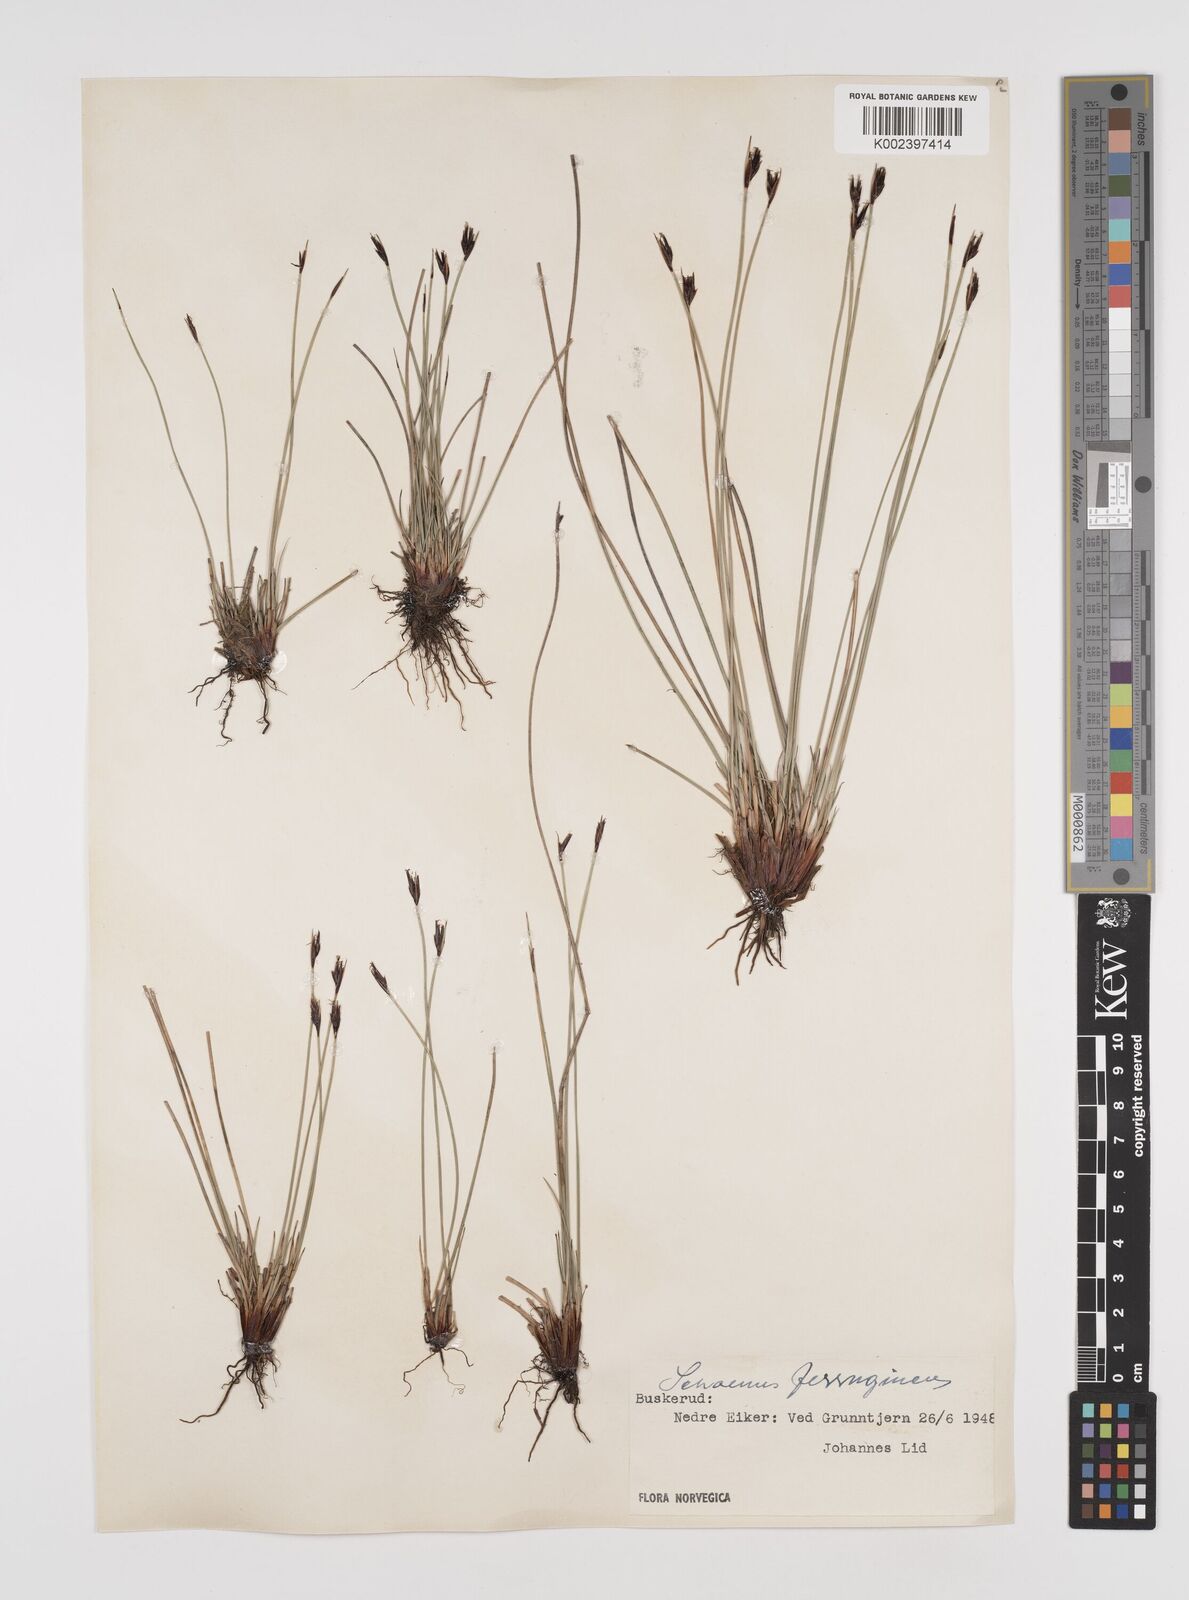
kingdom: Plantae
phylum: Tracheophyta
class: Liliopsida
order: Poales
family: Cyperaceae
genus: Schoenus
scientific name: Schoenus ferrugineus
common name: Brown bog-rush
